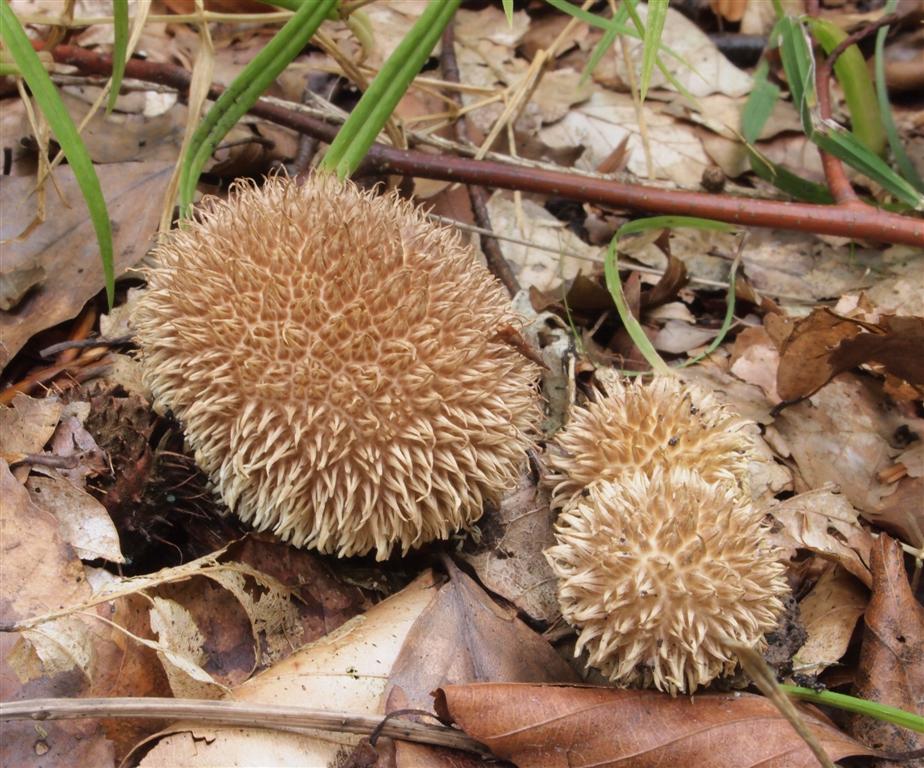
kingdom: Fungi
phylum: Basidiomycota
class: Agaricomycetes
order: Agaricales
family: Lycoperdaceae
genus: Lycoperdon
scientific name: Lycoperdon echinatum
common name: pindsvine-støvbold
